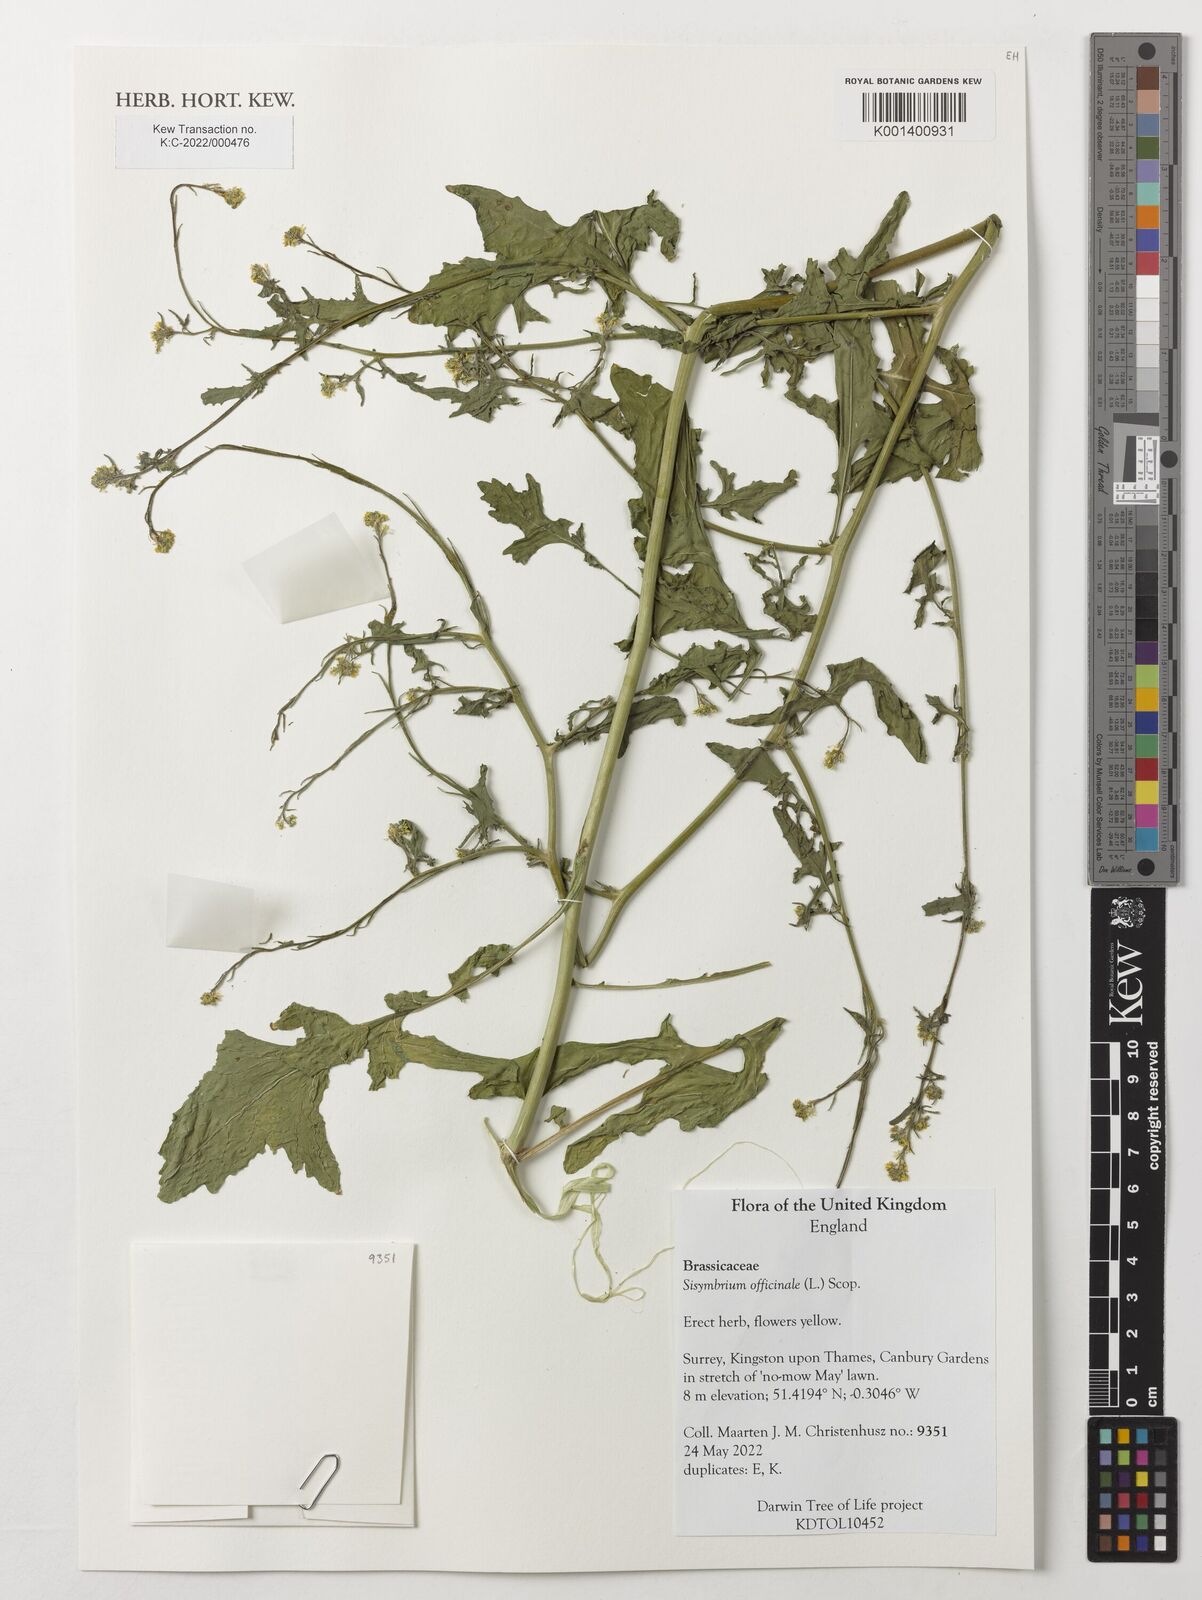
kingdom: Plantae
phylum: Tracheophyta
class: Magnoliopsida
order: Brassicales
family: Brassicaceae
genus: Sisymbrium
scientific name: Sisymbrium officinale
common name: Hedge mustard
